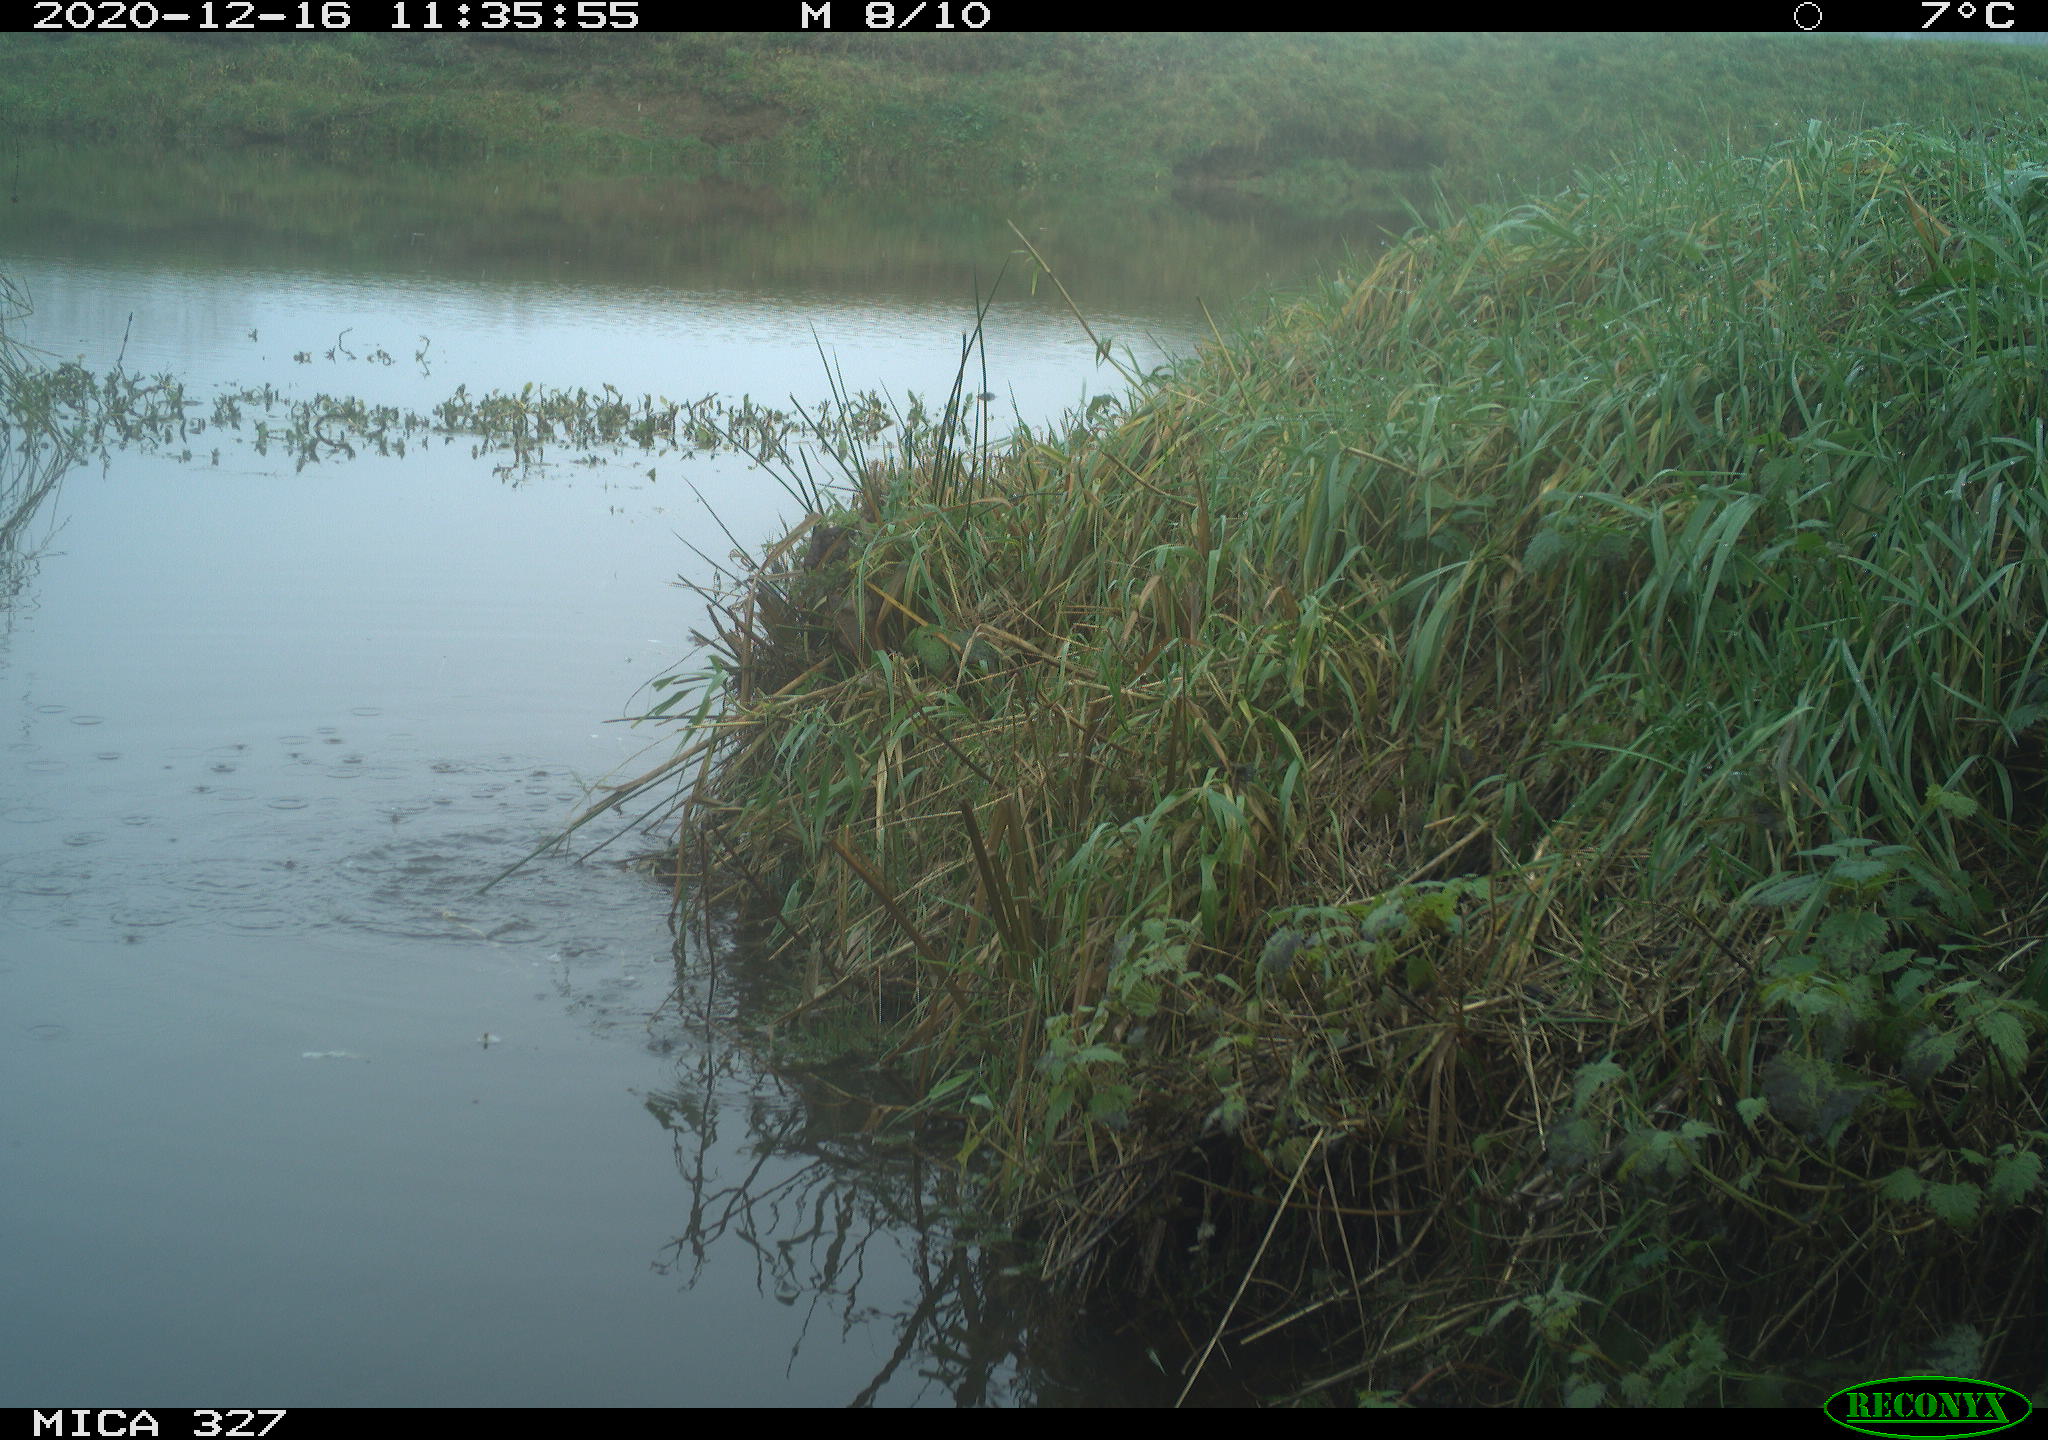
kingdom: Animalia
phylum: Chordata
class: Aves
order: Pelecaniformes
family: Ardeidae
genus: Ardea
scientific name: Ardea alba
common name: Great egret
